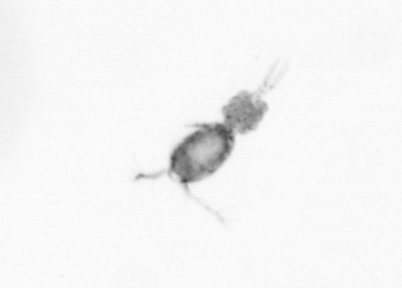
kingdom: Animalia
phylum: Arthropoda
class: Copepoda
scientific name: Copepoda
